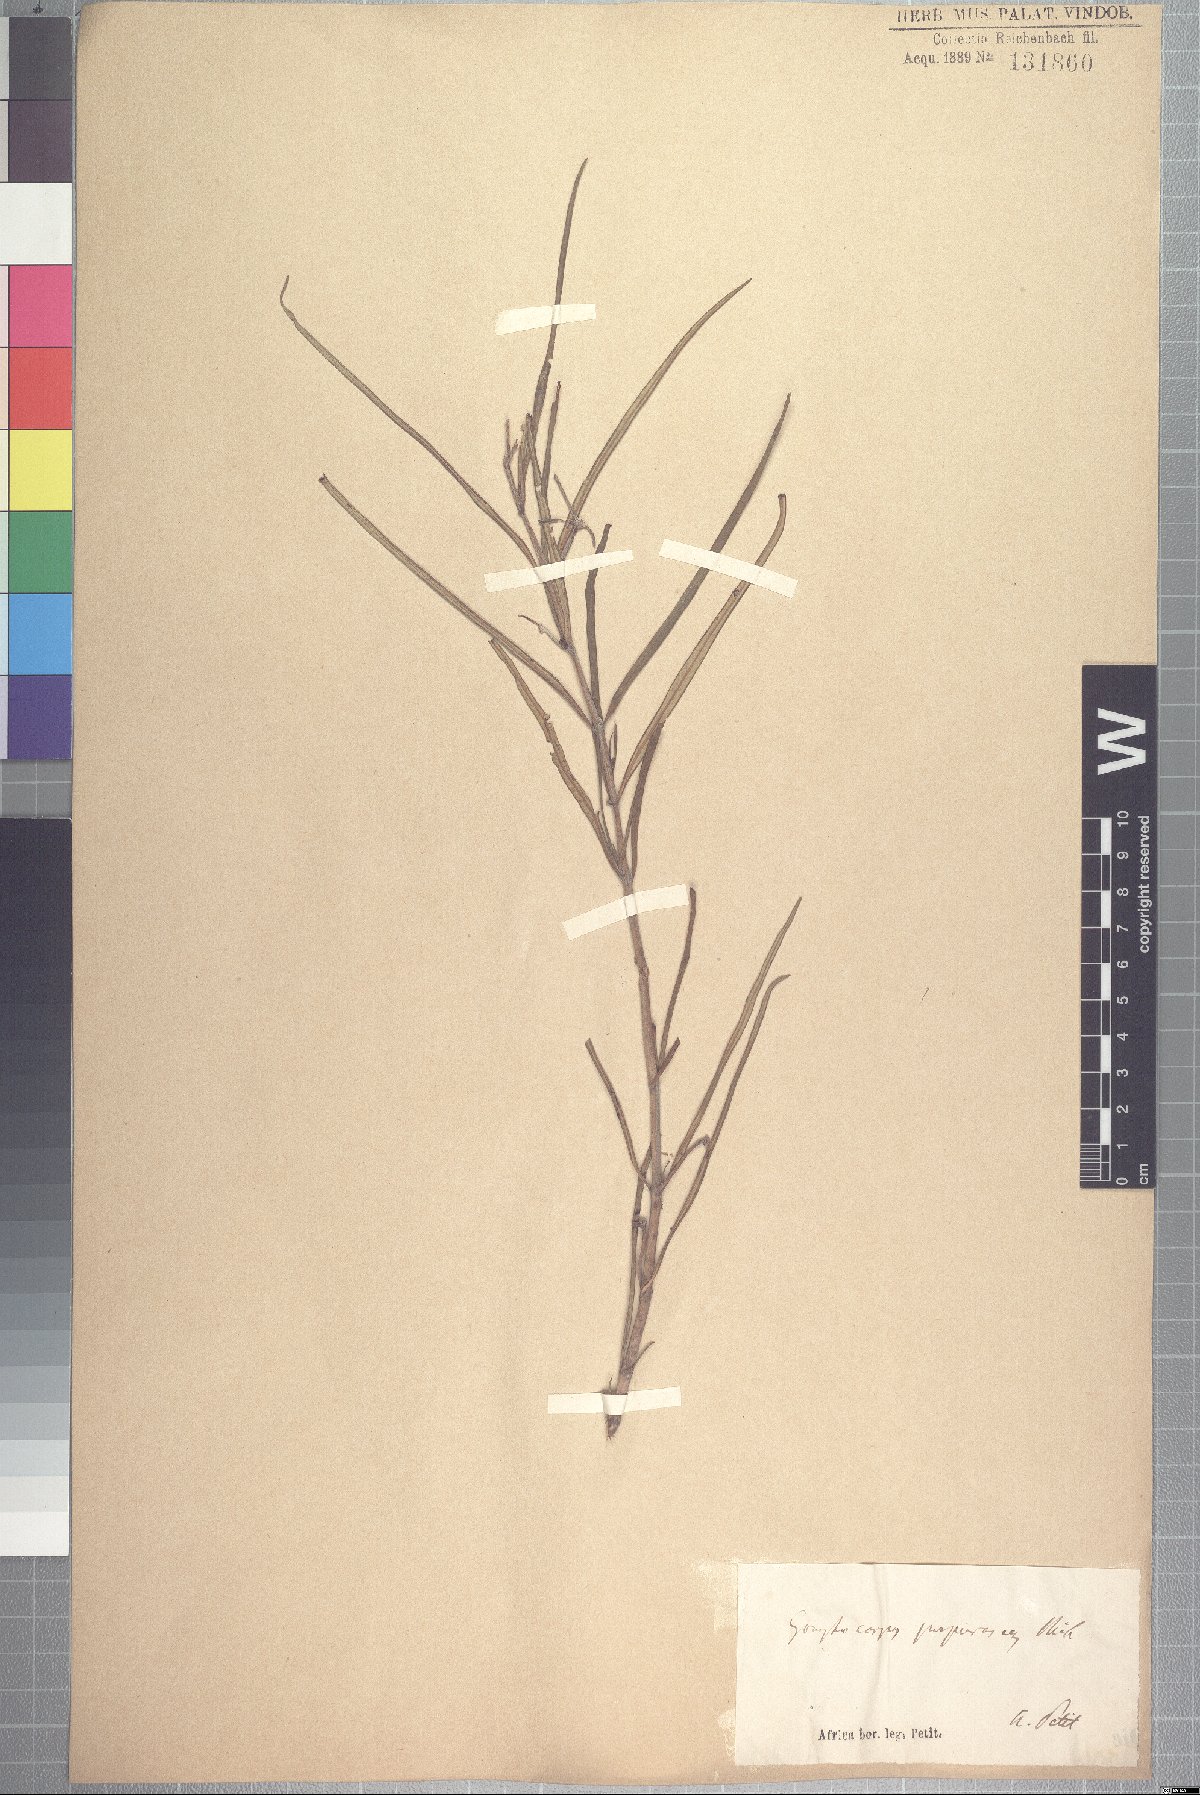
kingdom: Plantae
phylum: Tracheophyta
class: Magnoliopsida
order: Gentianales
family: Apocynaceae
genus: Gomphocarpus
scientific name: Gomphocarpus purpurascens
